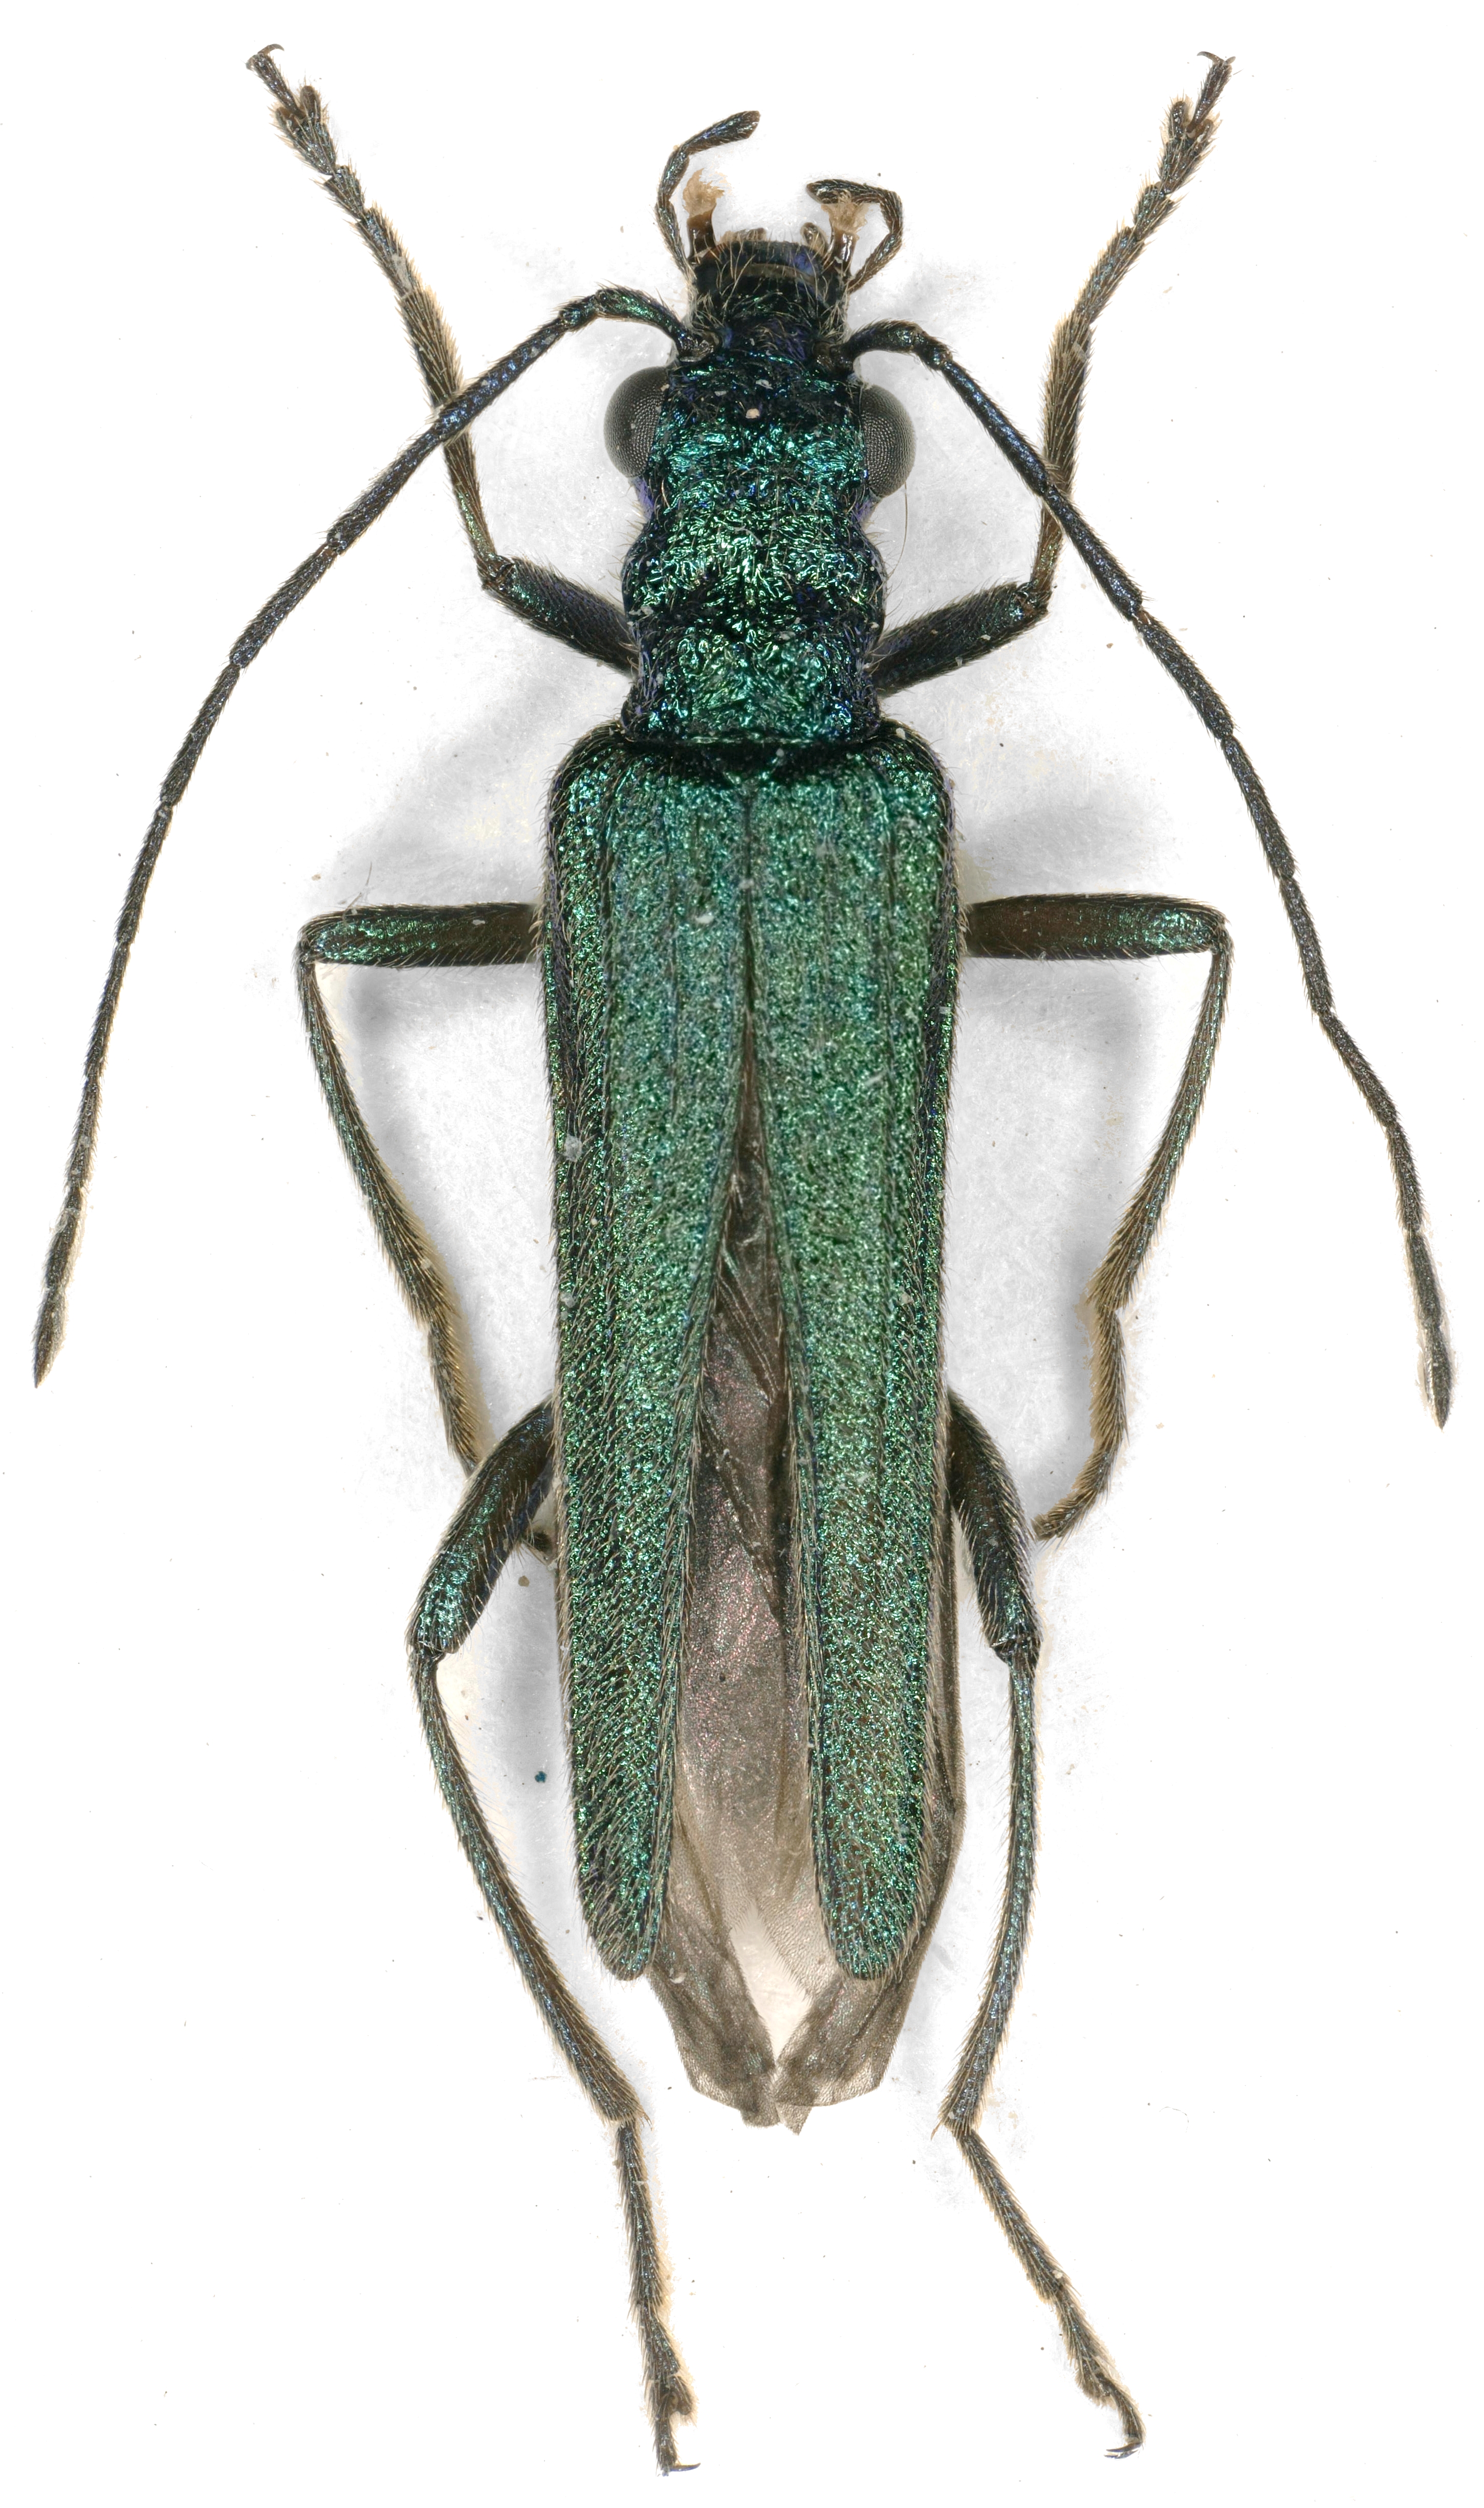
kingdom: Animalia
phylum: Arthropoda
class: Insecta
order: Coleoptera
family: Oedemeridae
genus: Oedemera
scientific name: Oedemera nobilis
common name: Swollen-thighed beetle
